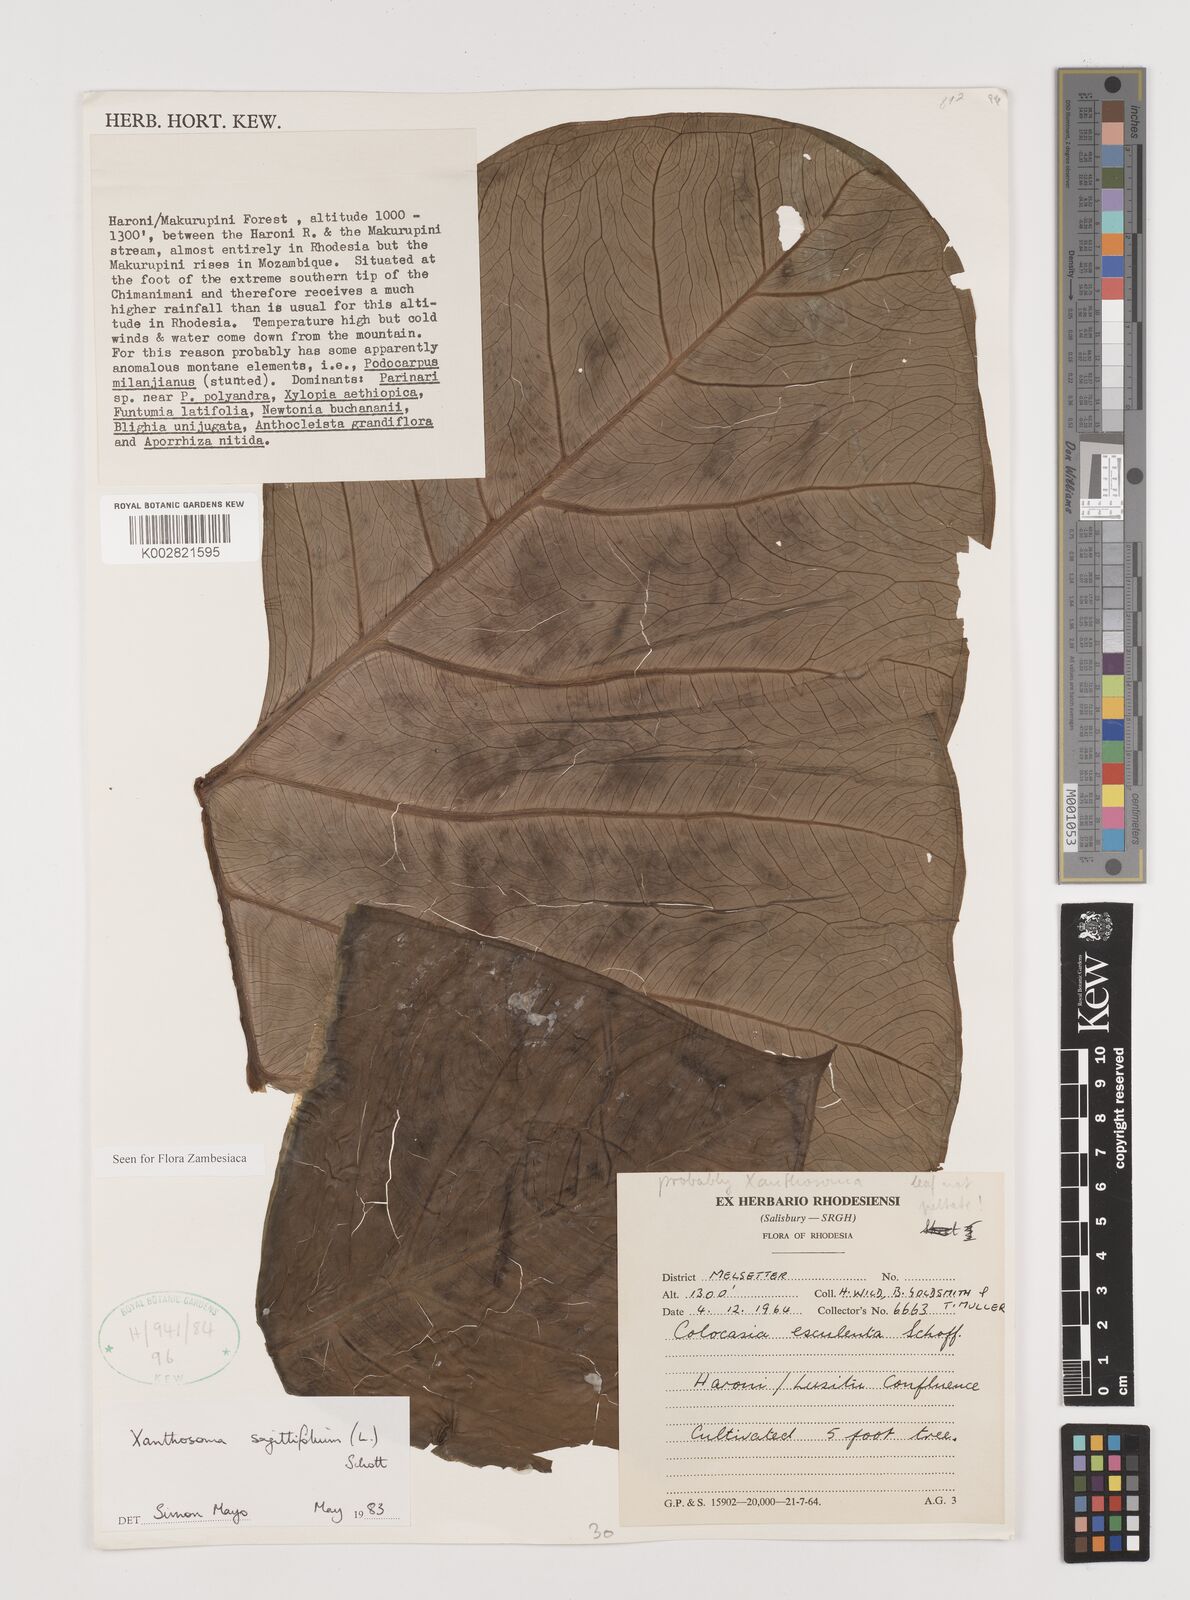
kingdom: Plantae
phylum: Tracheophyta
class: Liliopsida
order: Alismatales
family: Araceae
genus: Xanthosoma
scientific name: Xanthosoma sagittifolium
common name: Arrowleaf elephant's ear
